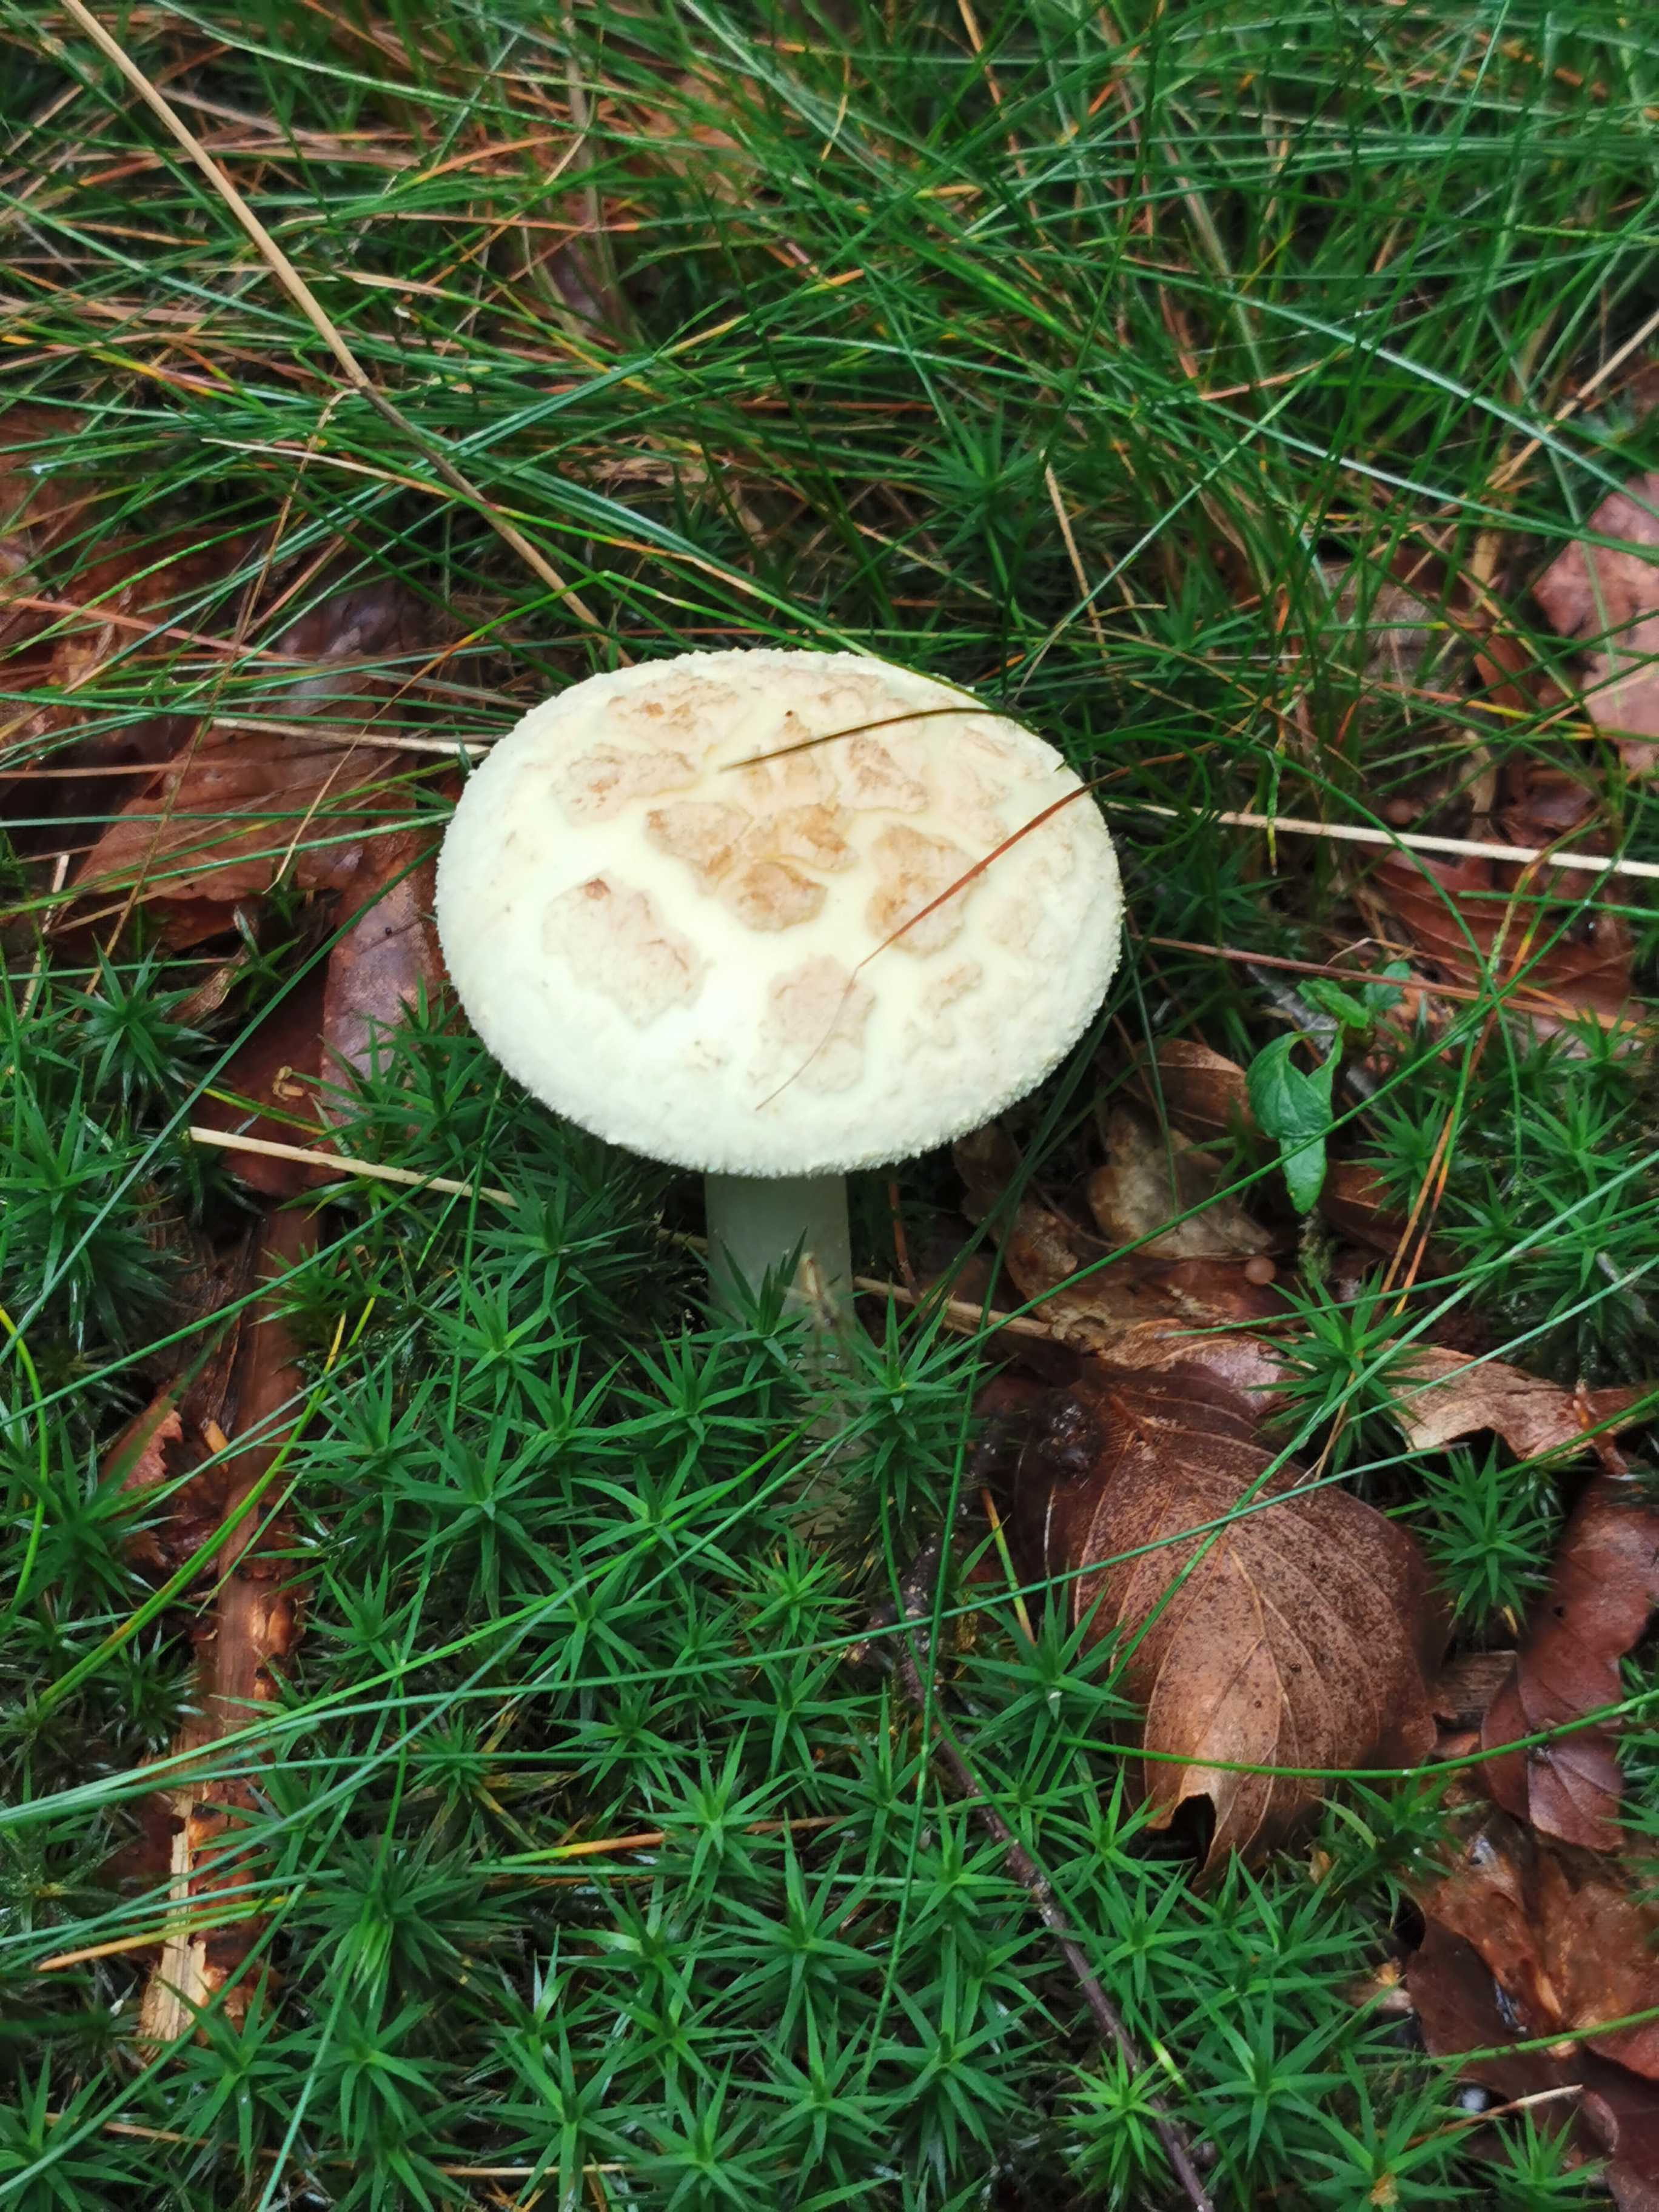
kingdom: Fungi
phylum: Basidiomycota
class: Agaricomycetes
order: Agaricales
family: Amanitaceae
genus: Amanita
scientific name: Amanita citrina
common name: kugleknoldet fluesvamp
